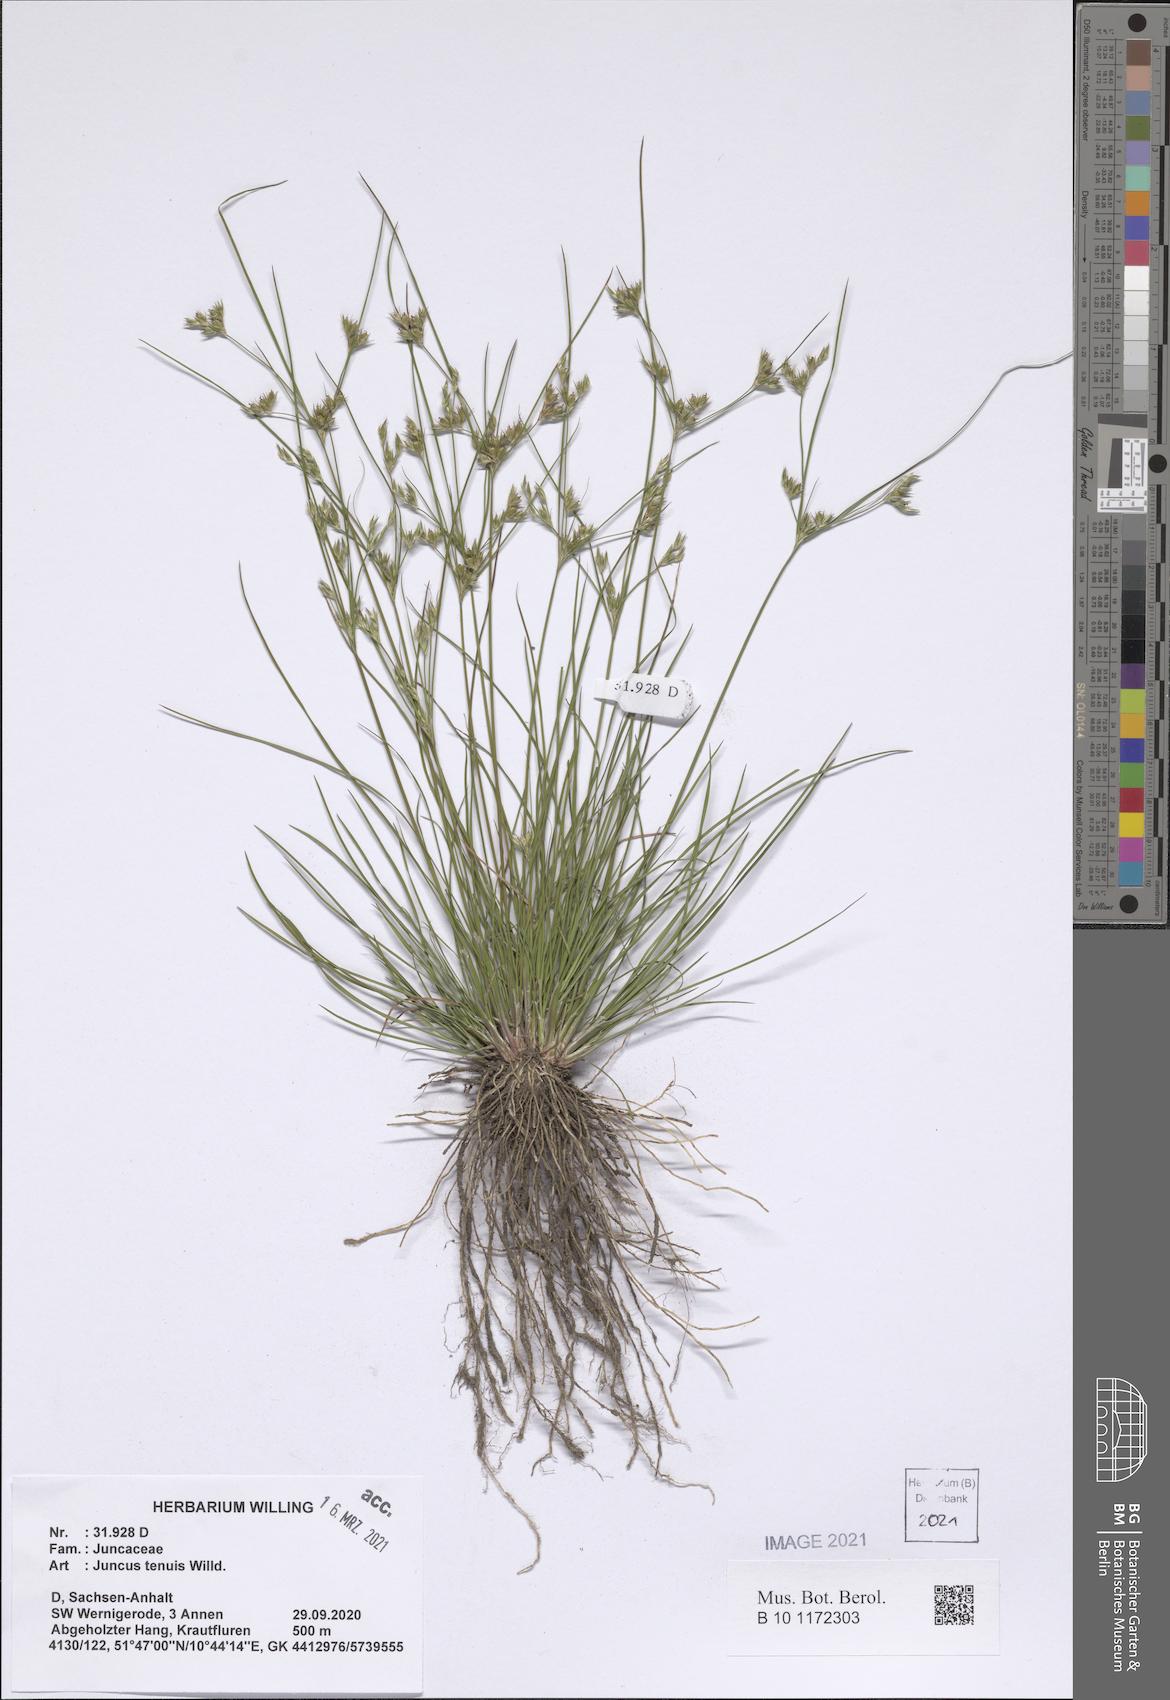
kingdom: Plantae
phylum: Tracheophyta
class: Liliopsida
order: Poales
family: Juncaceae
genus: Juncus
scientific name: Juncus tenuis
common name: Slender rush
